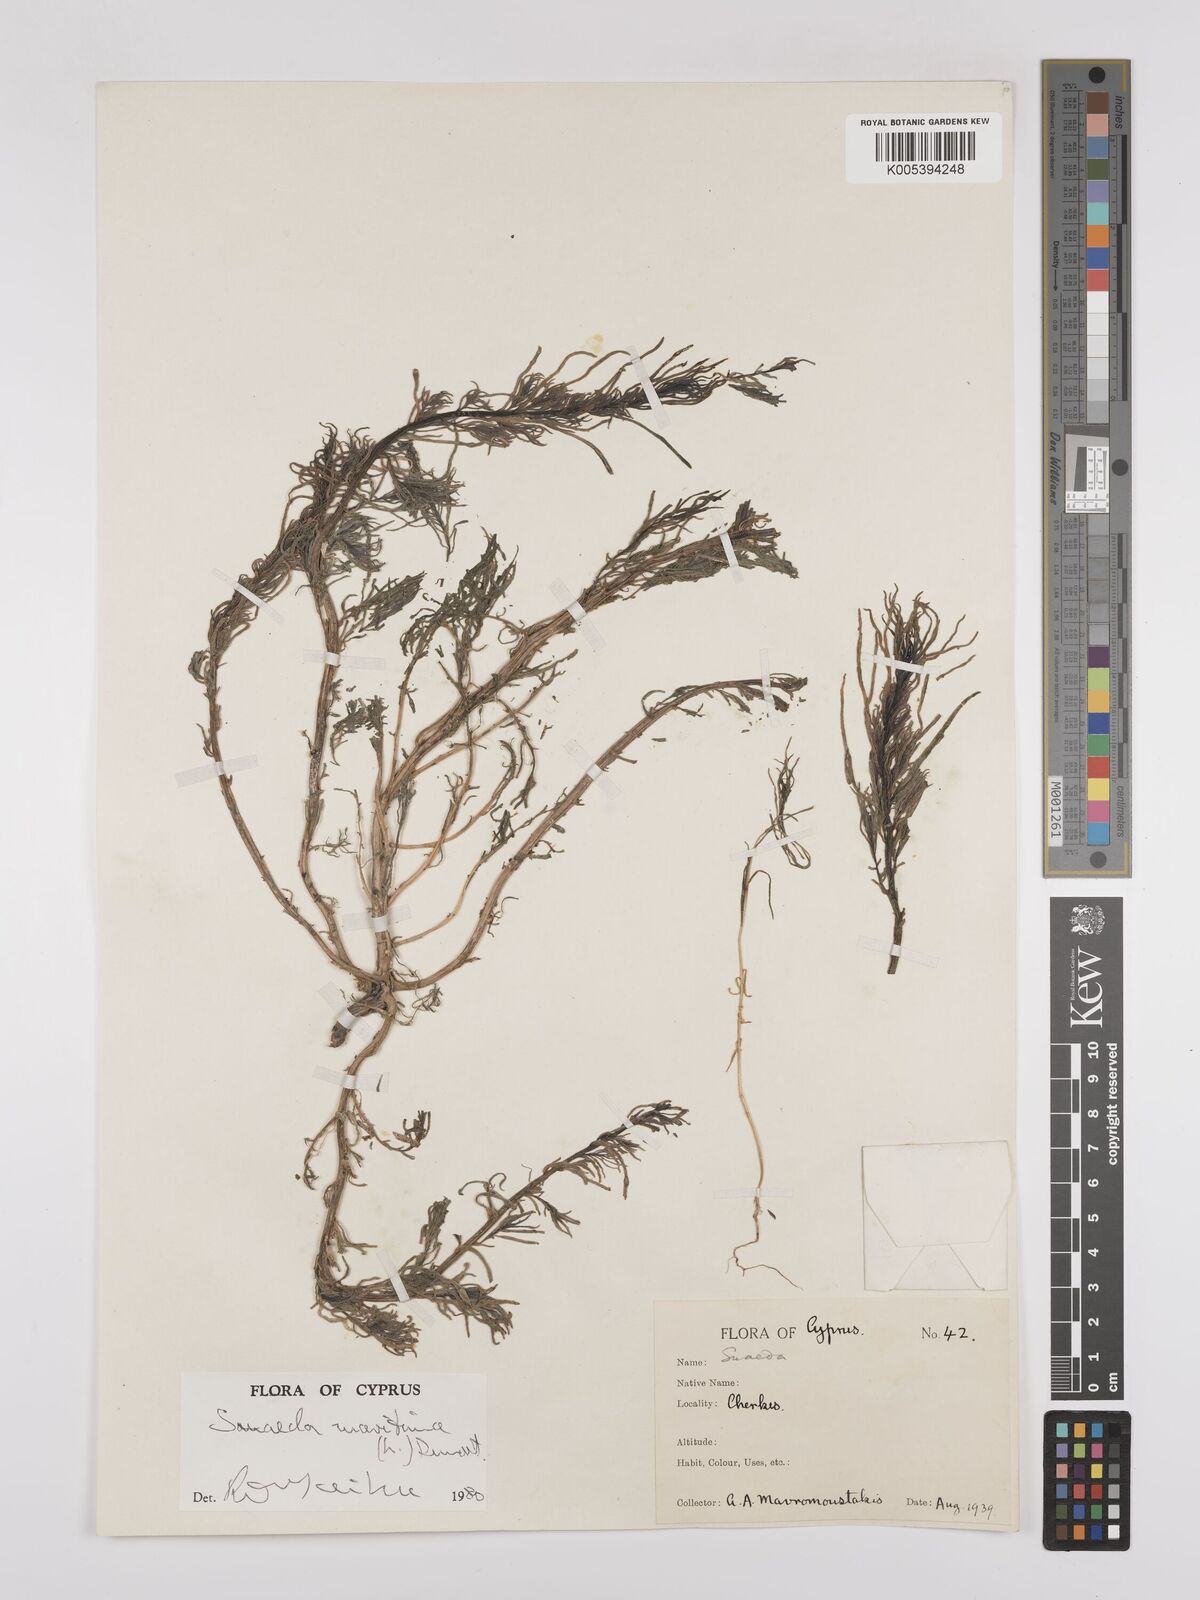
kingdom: Plantae
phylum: Tracheophyta
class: Magnoliopsida
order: Caryophyllales
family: Amaranthaceae
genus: Suaeda
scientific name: Suaeda
